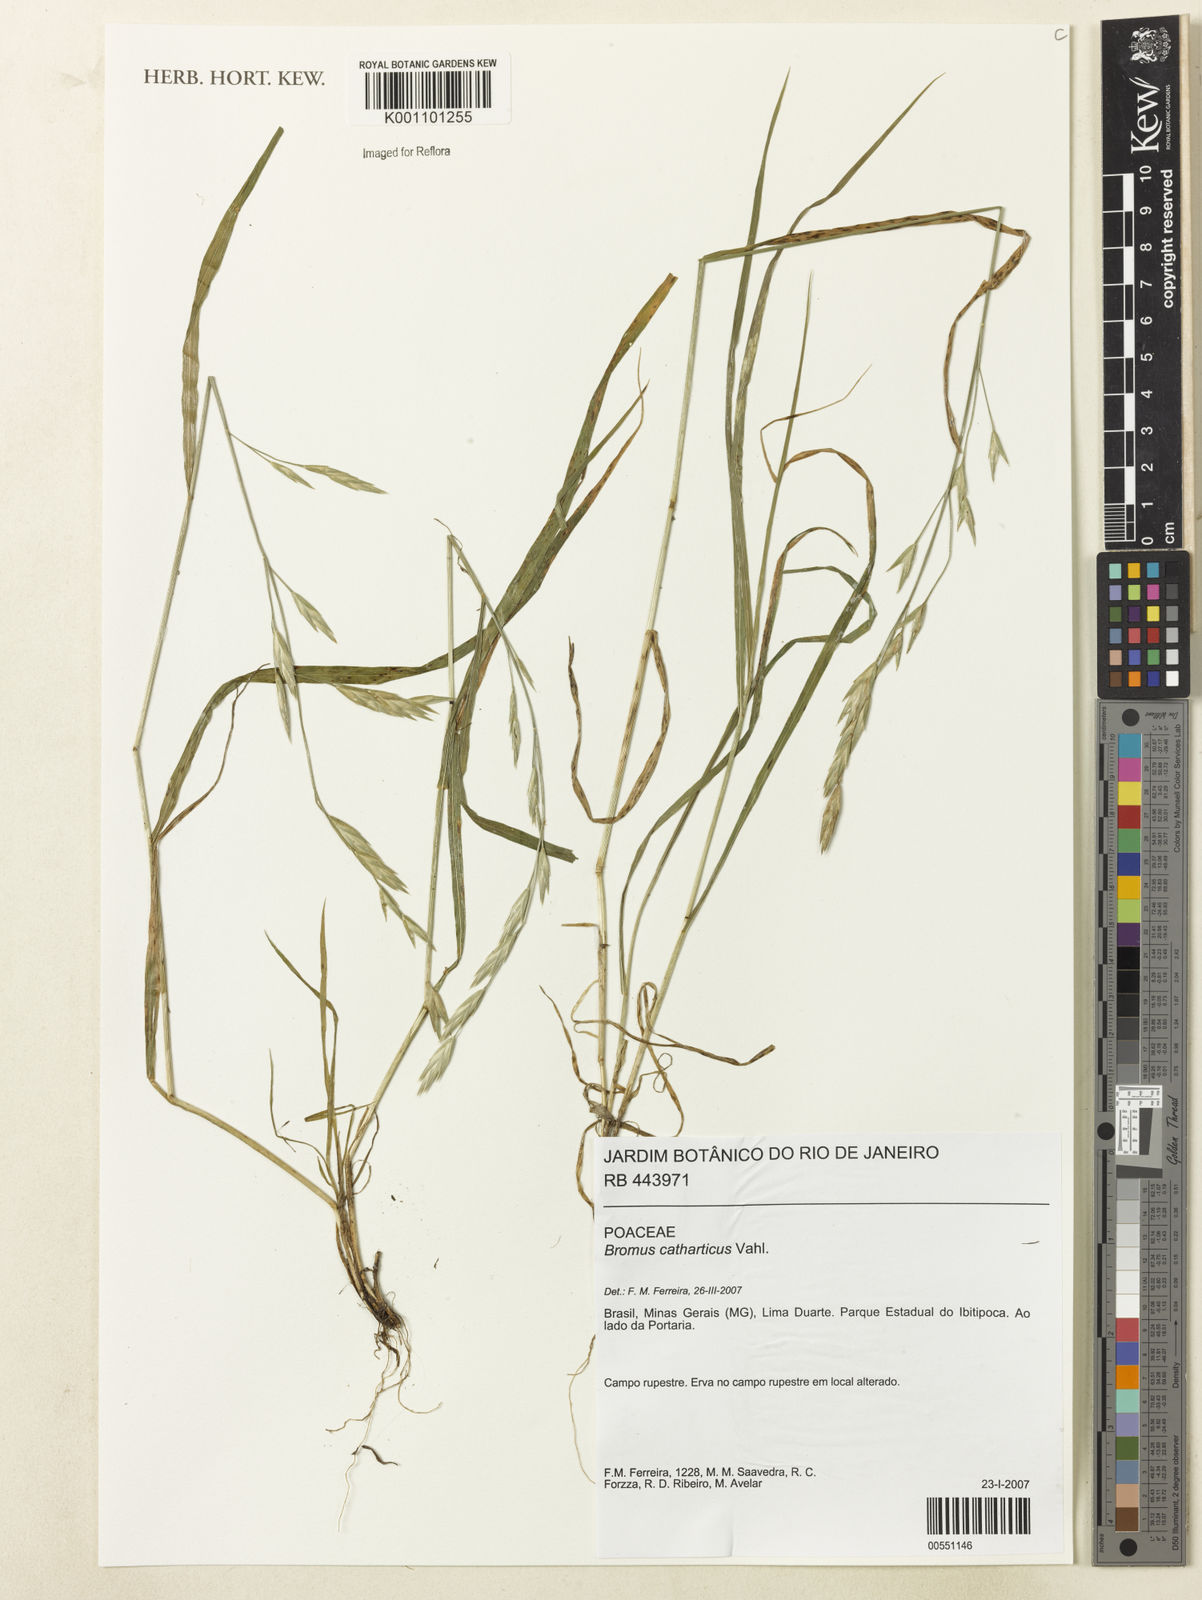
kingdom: Plantae
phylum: Tracheophyta
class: Liliopsida
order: Poales
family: Poaceae
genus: Bromus
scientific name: Bromus catharticus
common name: Rescuegrass
